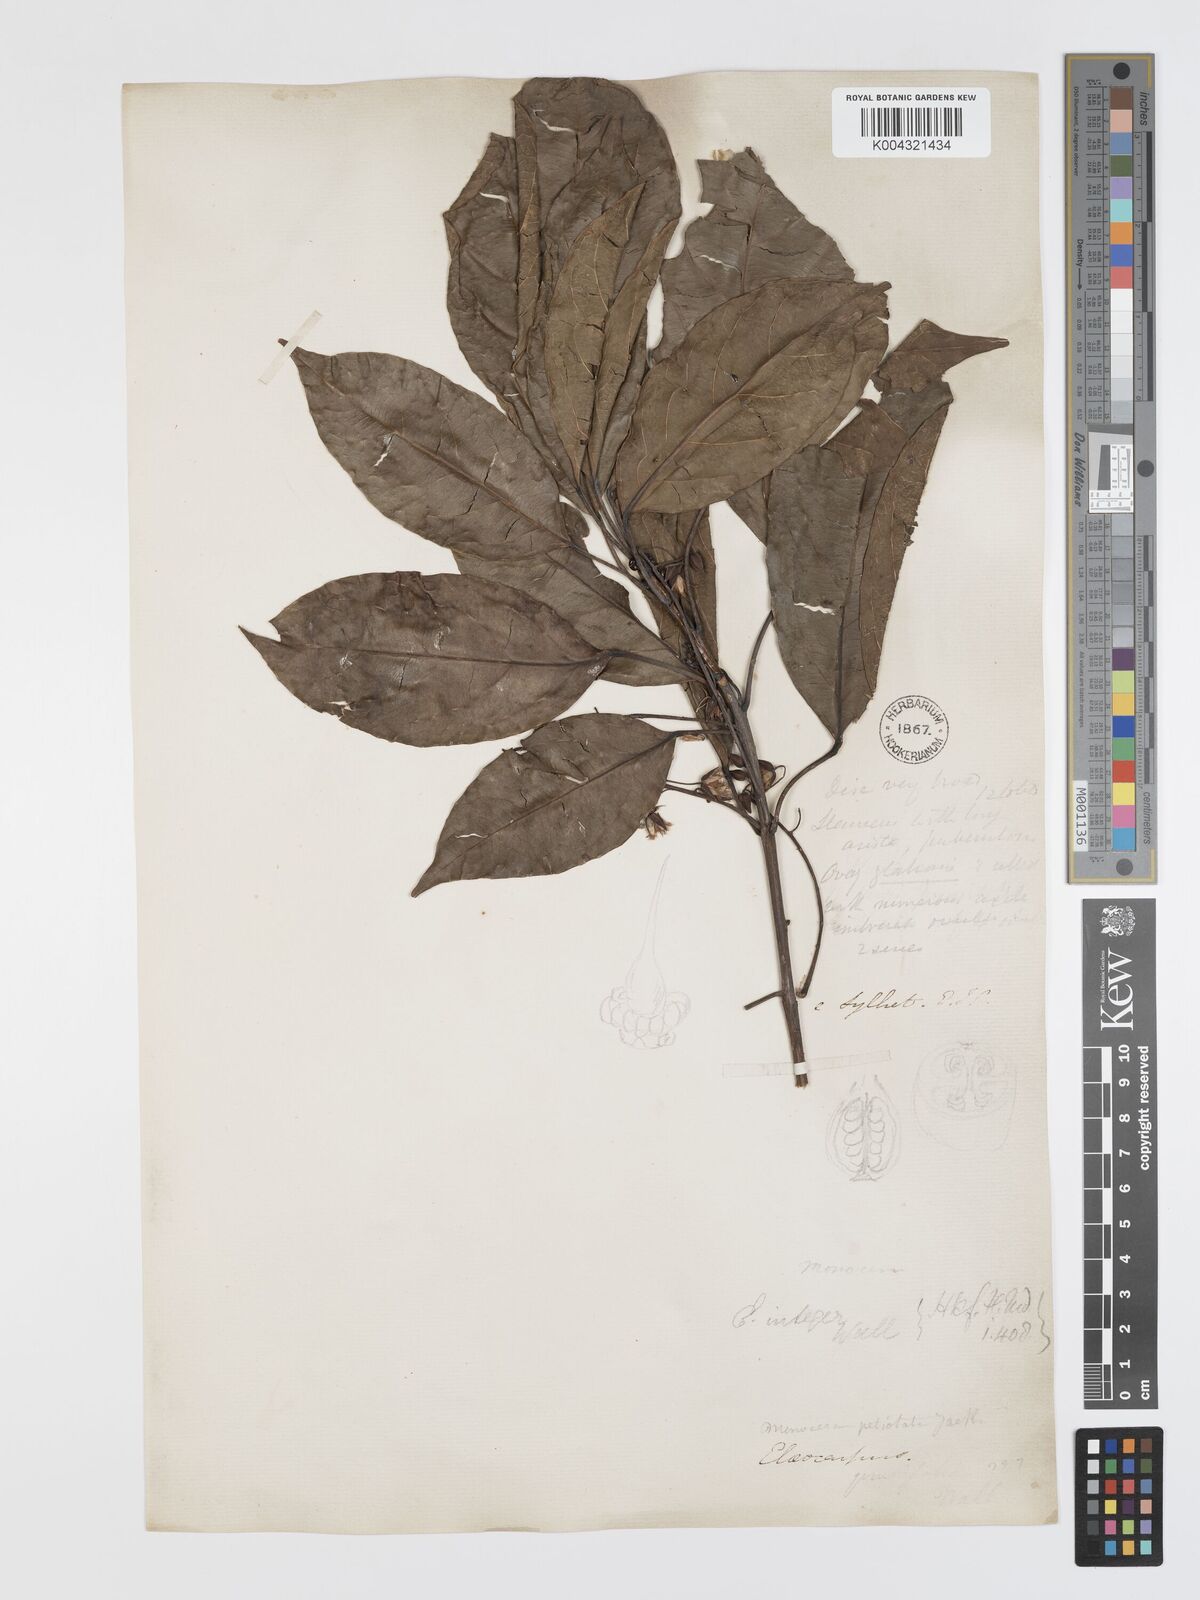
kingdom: Plantae
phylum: Tracheophyta
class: Magnoliopsida
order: Oxalidales
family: Elaeocarpaceae
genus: Elaeocarpus
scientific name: Elaeocarpus petiolatus
